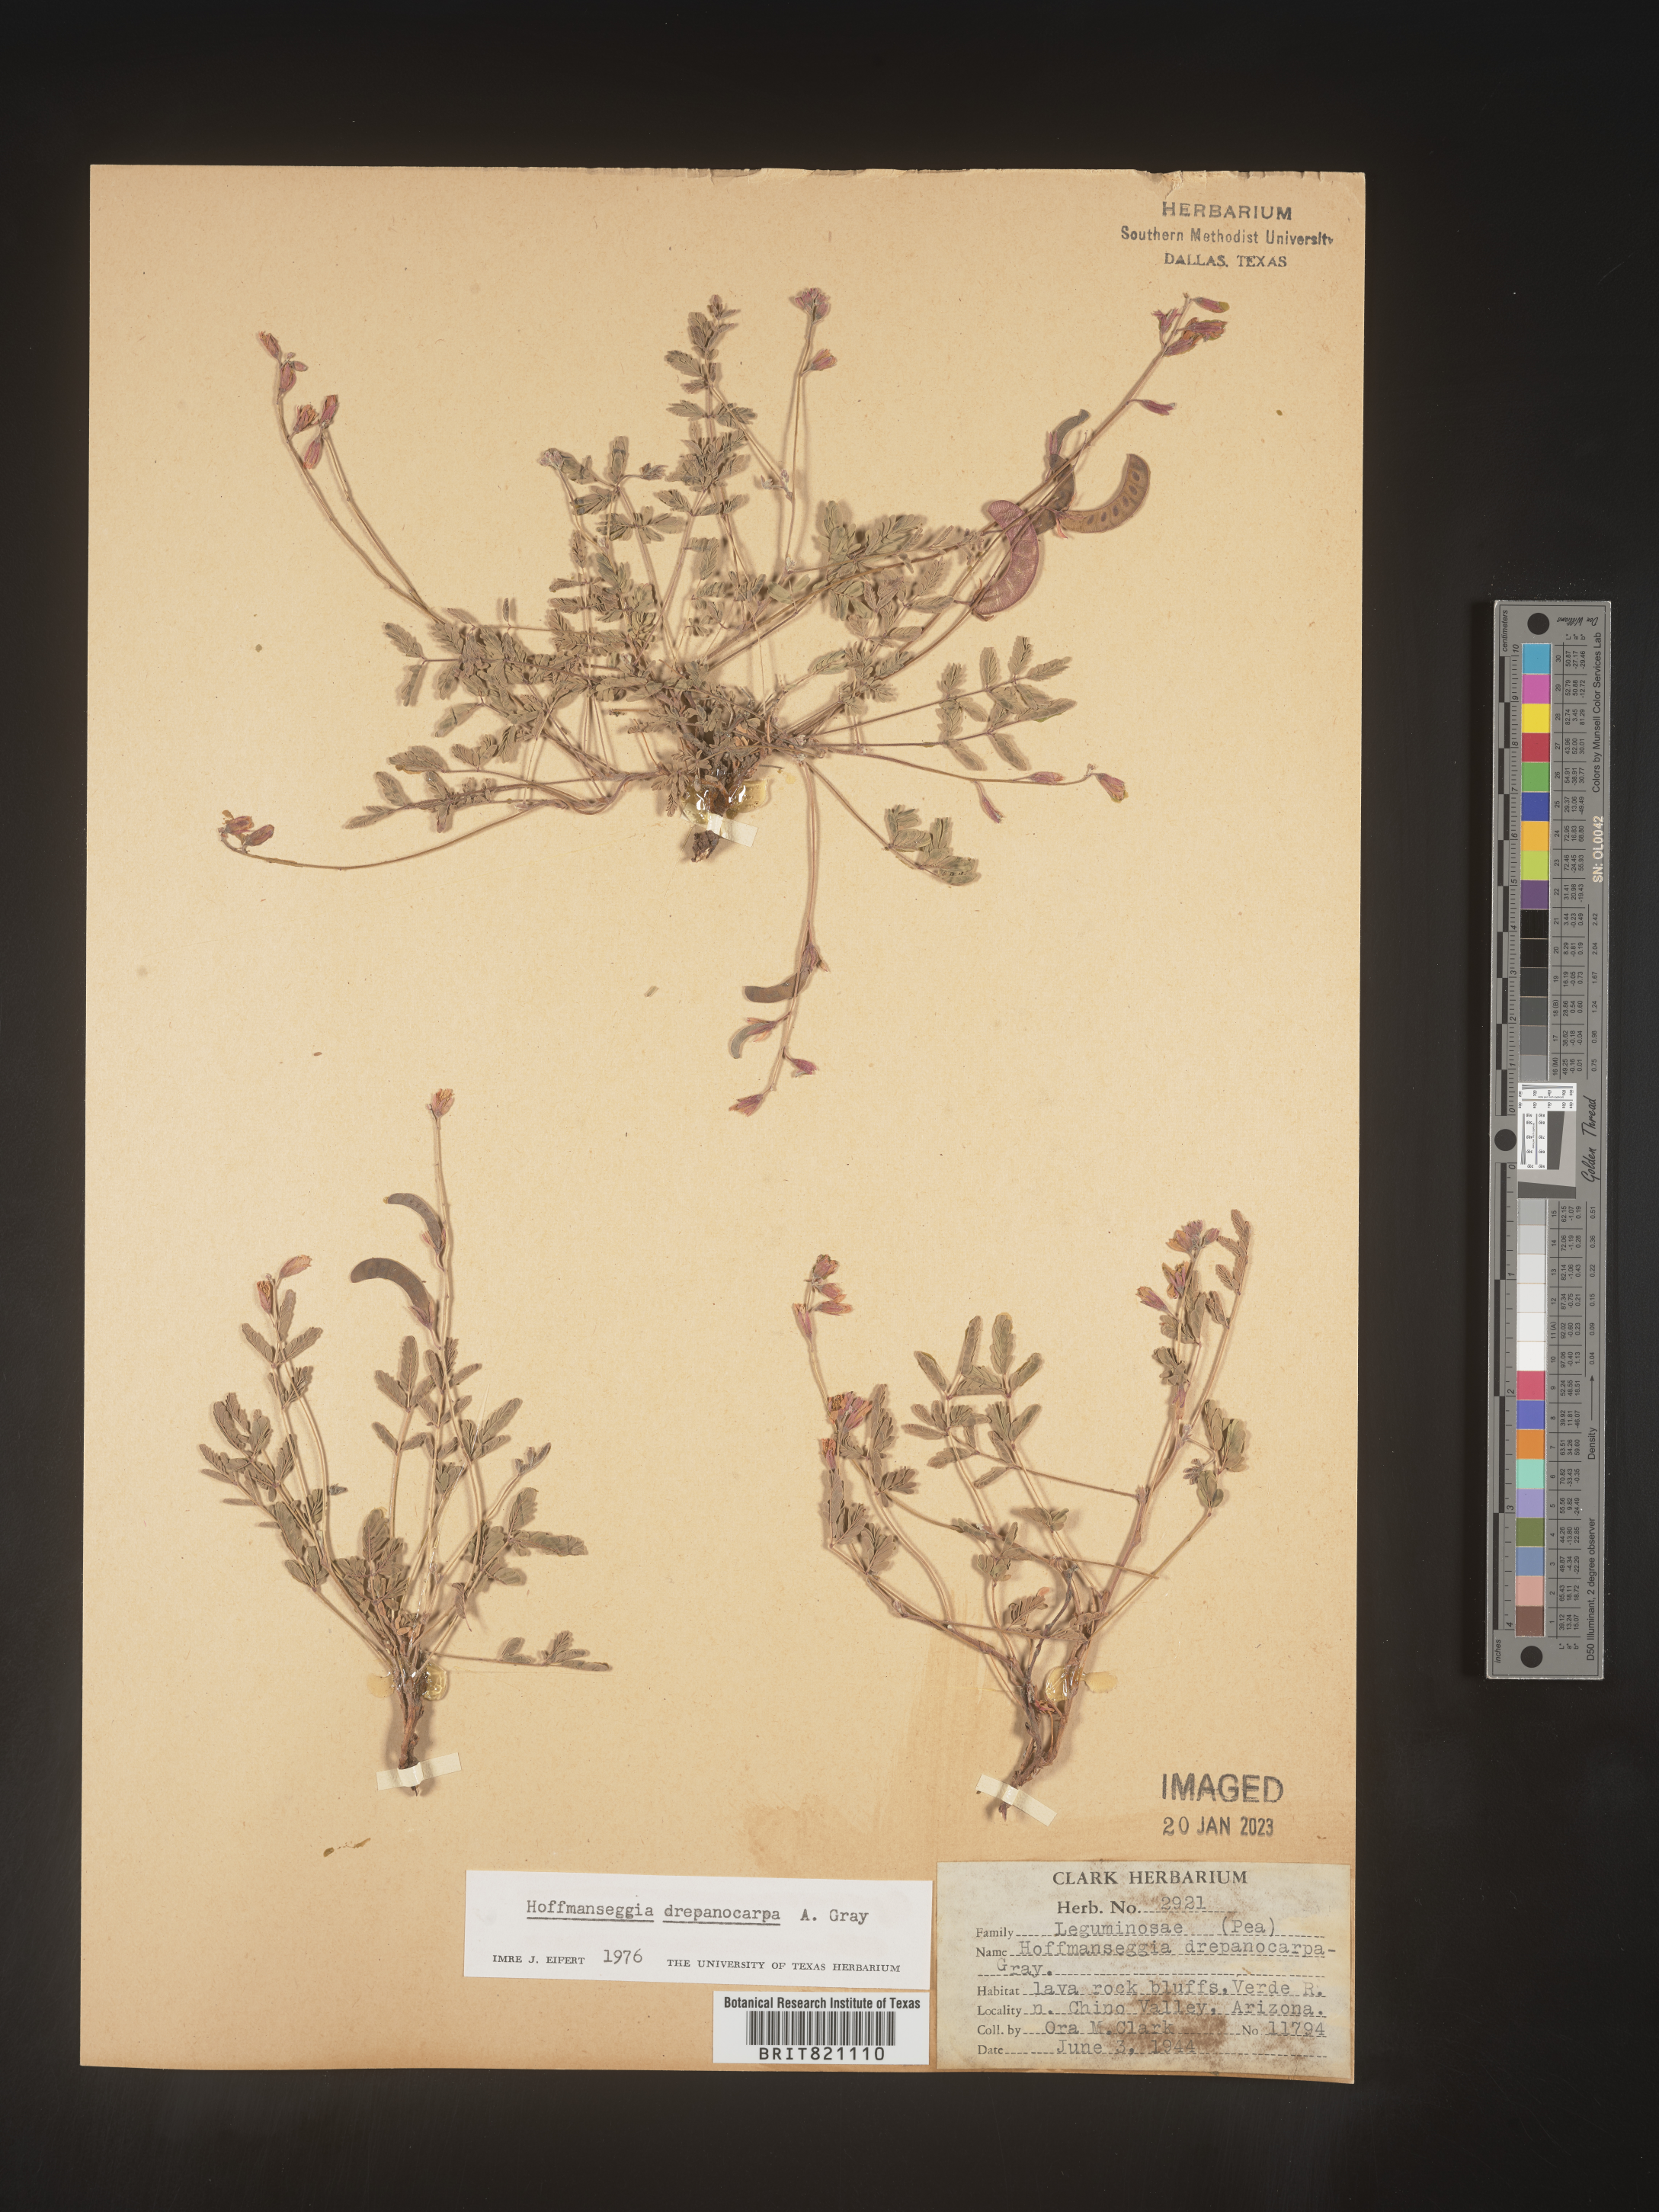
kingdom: Plantae
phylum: Tracheophyta
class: Magnoliopsida
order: Fabales
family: Fabaceae
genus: Hoffmannseggia
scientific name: Hoffmannseggia
